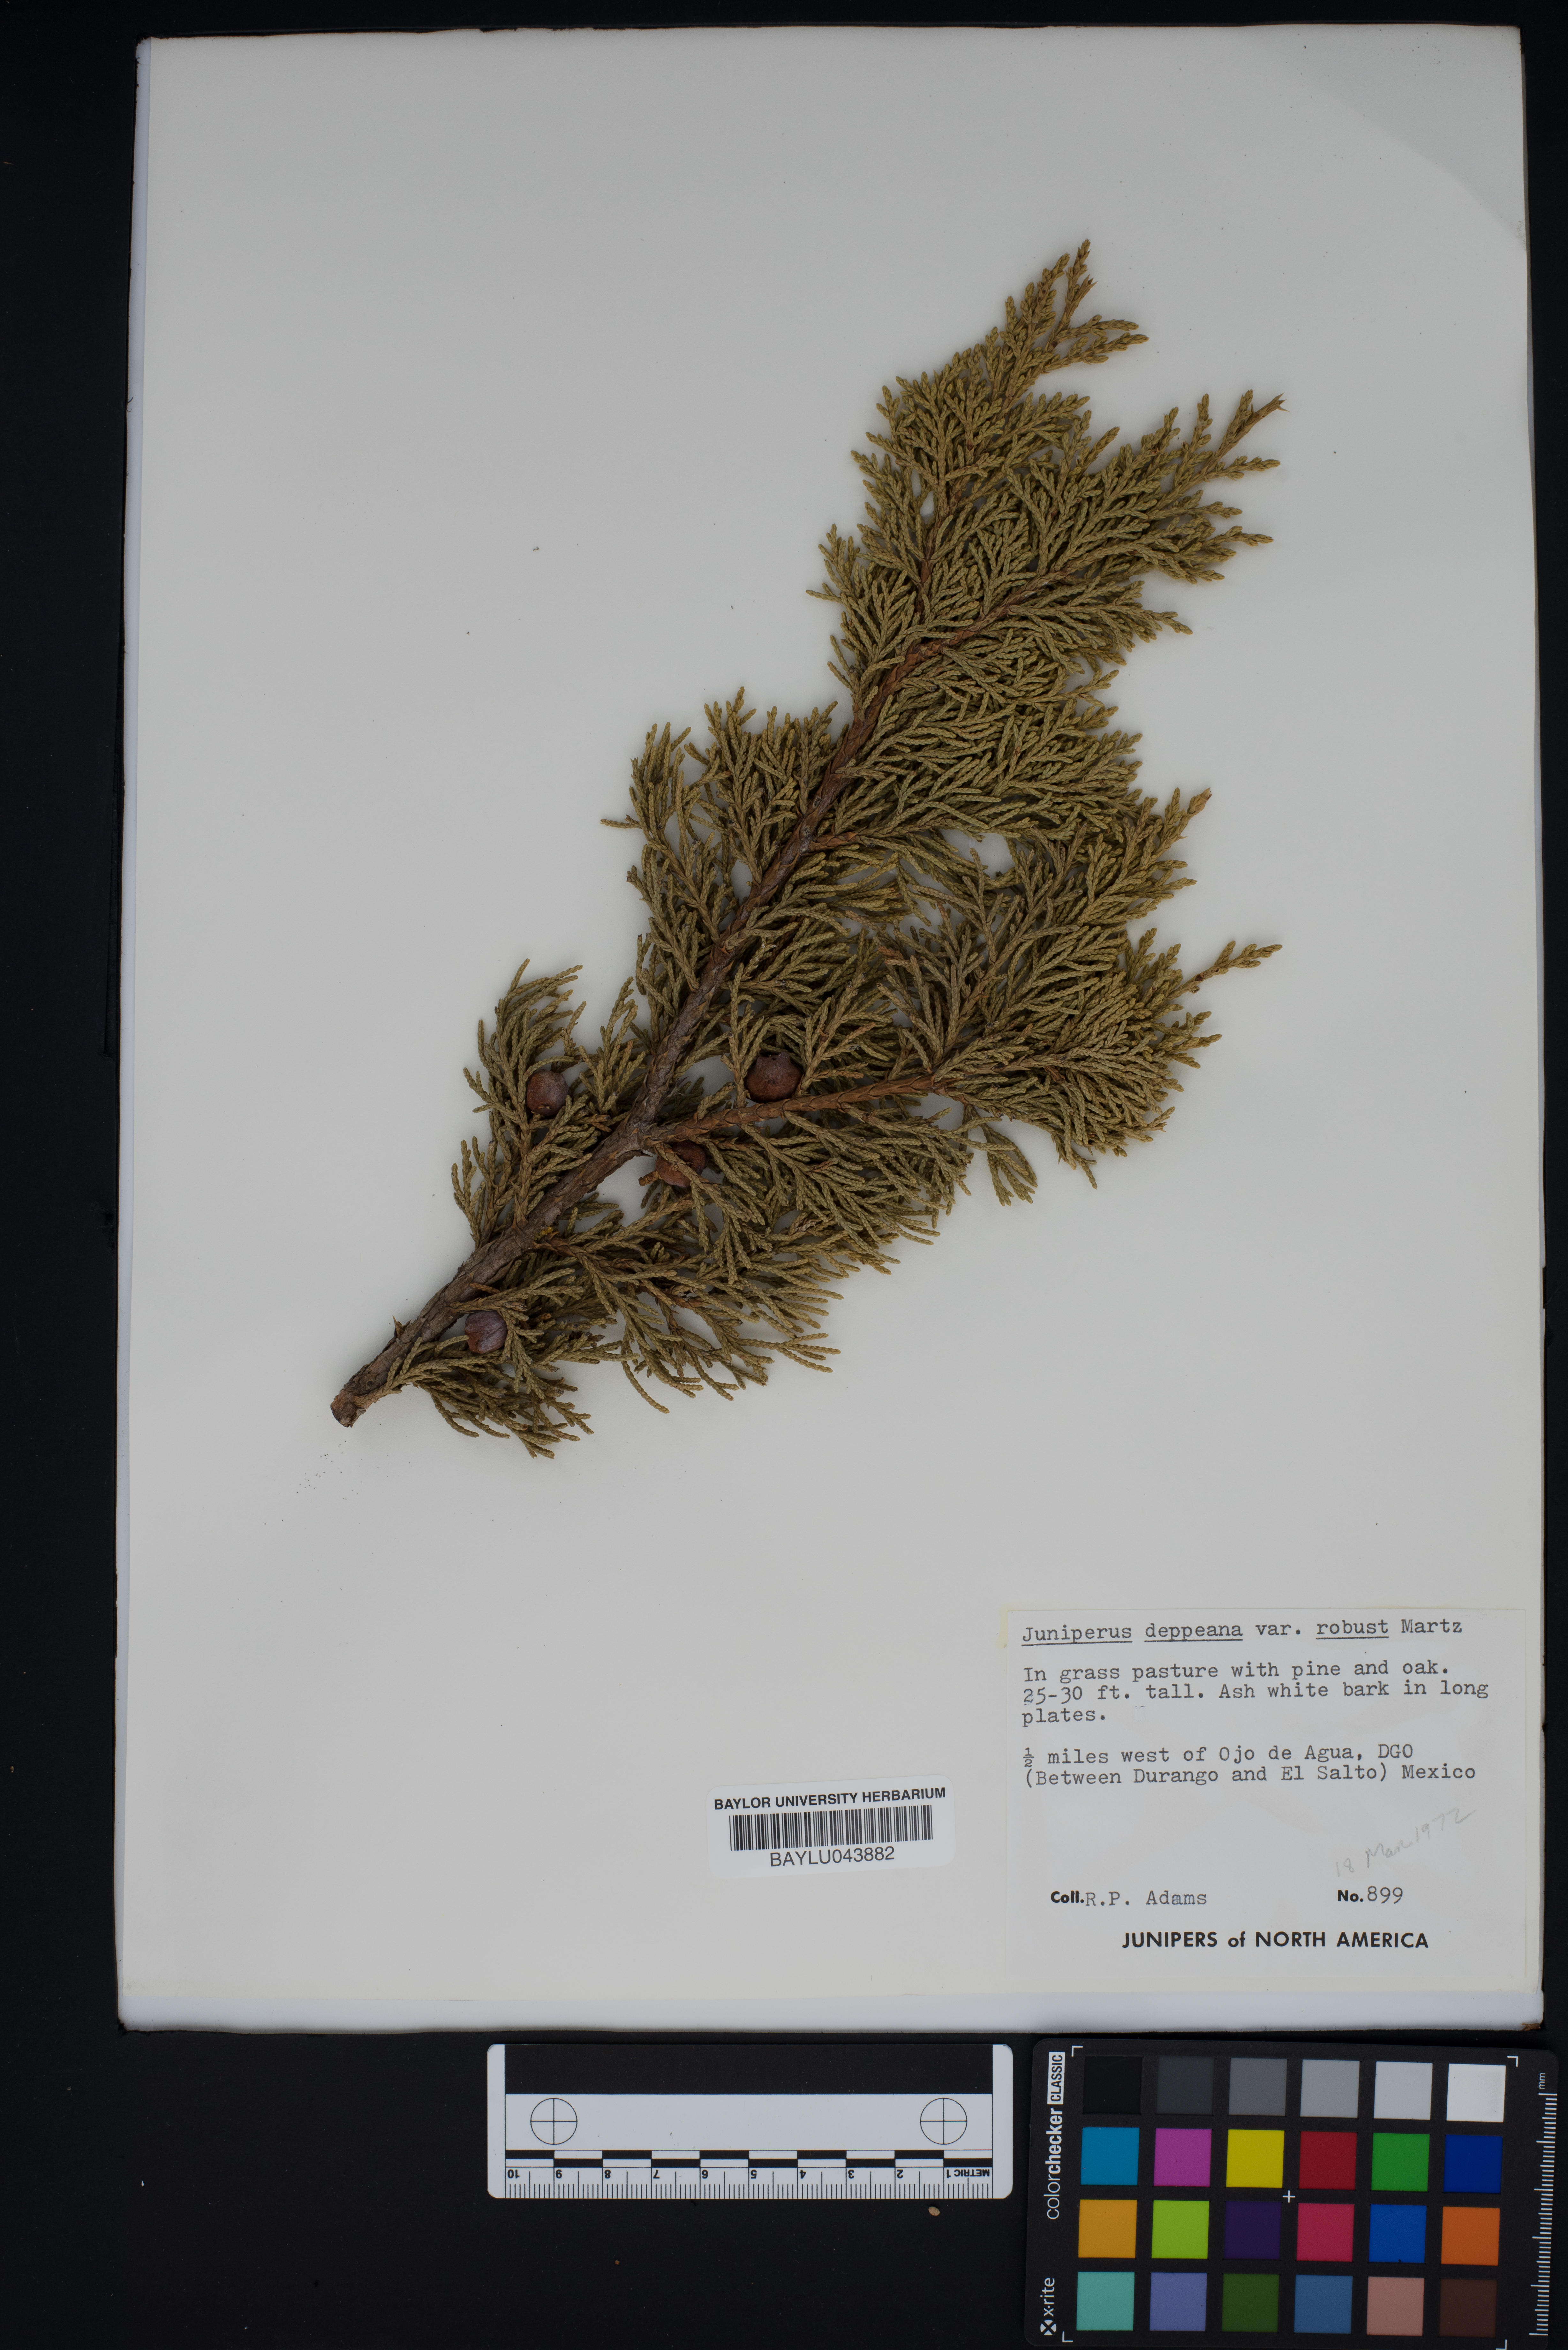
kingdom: Plantae
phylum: Tracheophyta
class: Pinopsida
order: Pinales
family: Cupressaceae
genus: Juniperus
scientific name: Juniperus deppeana
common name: Alligator juniper
